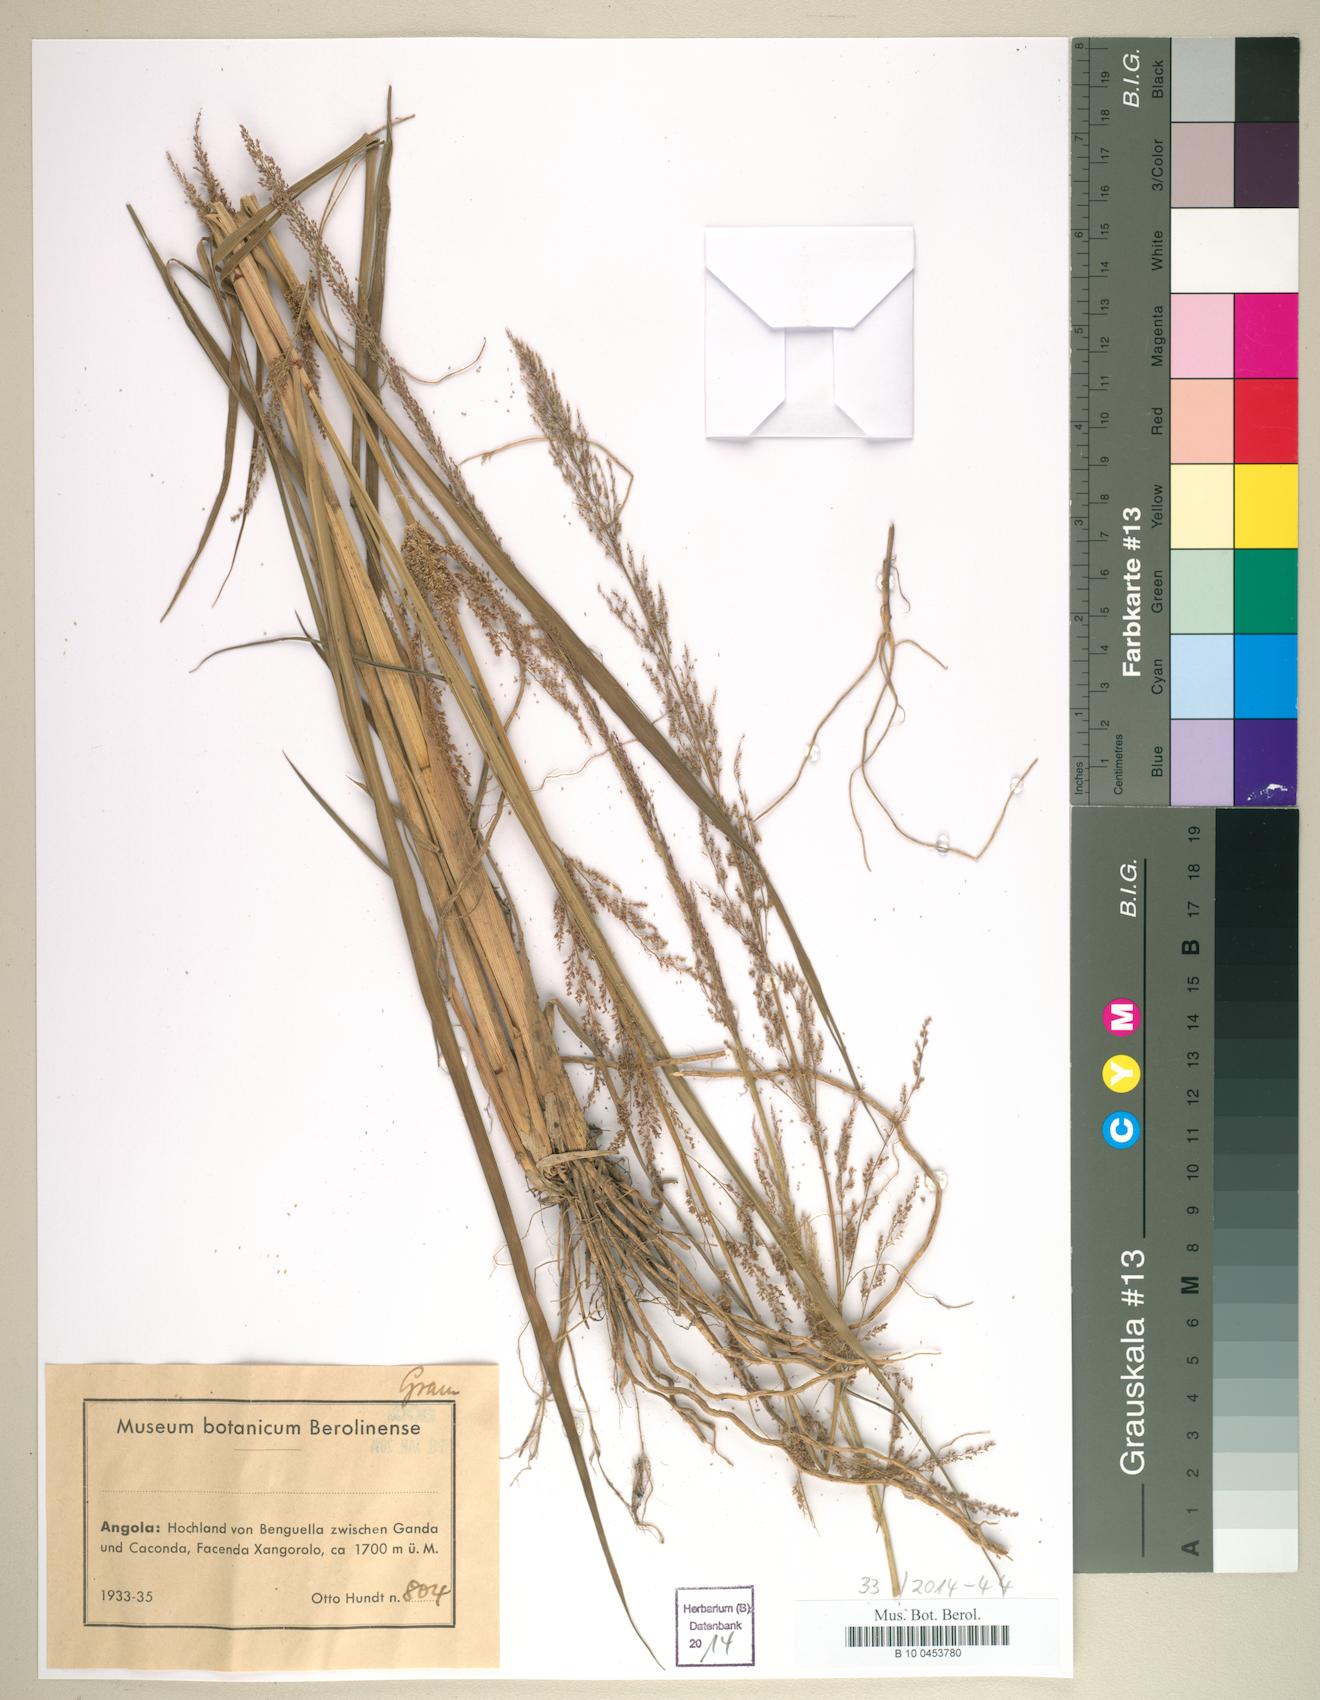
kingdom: Plantae
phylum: Tracheophyta
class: Liliopsida
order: Poales
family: Poaceae
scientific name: Poaceae
